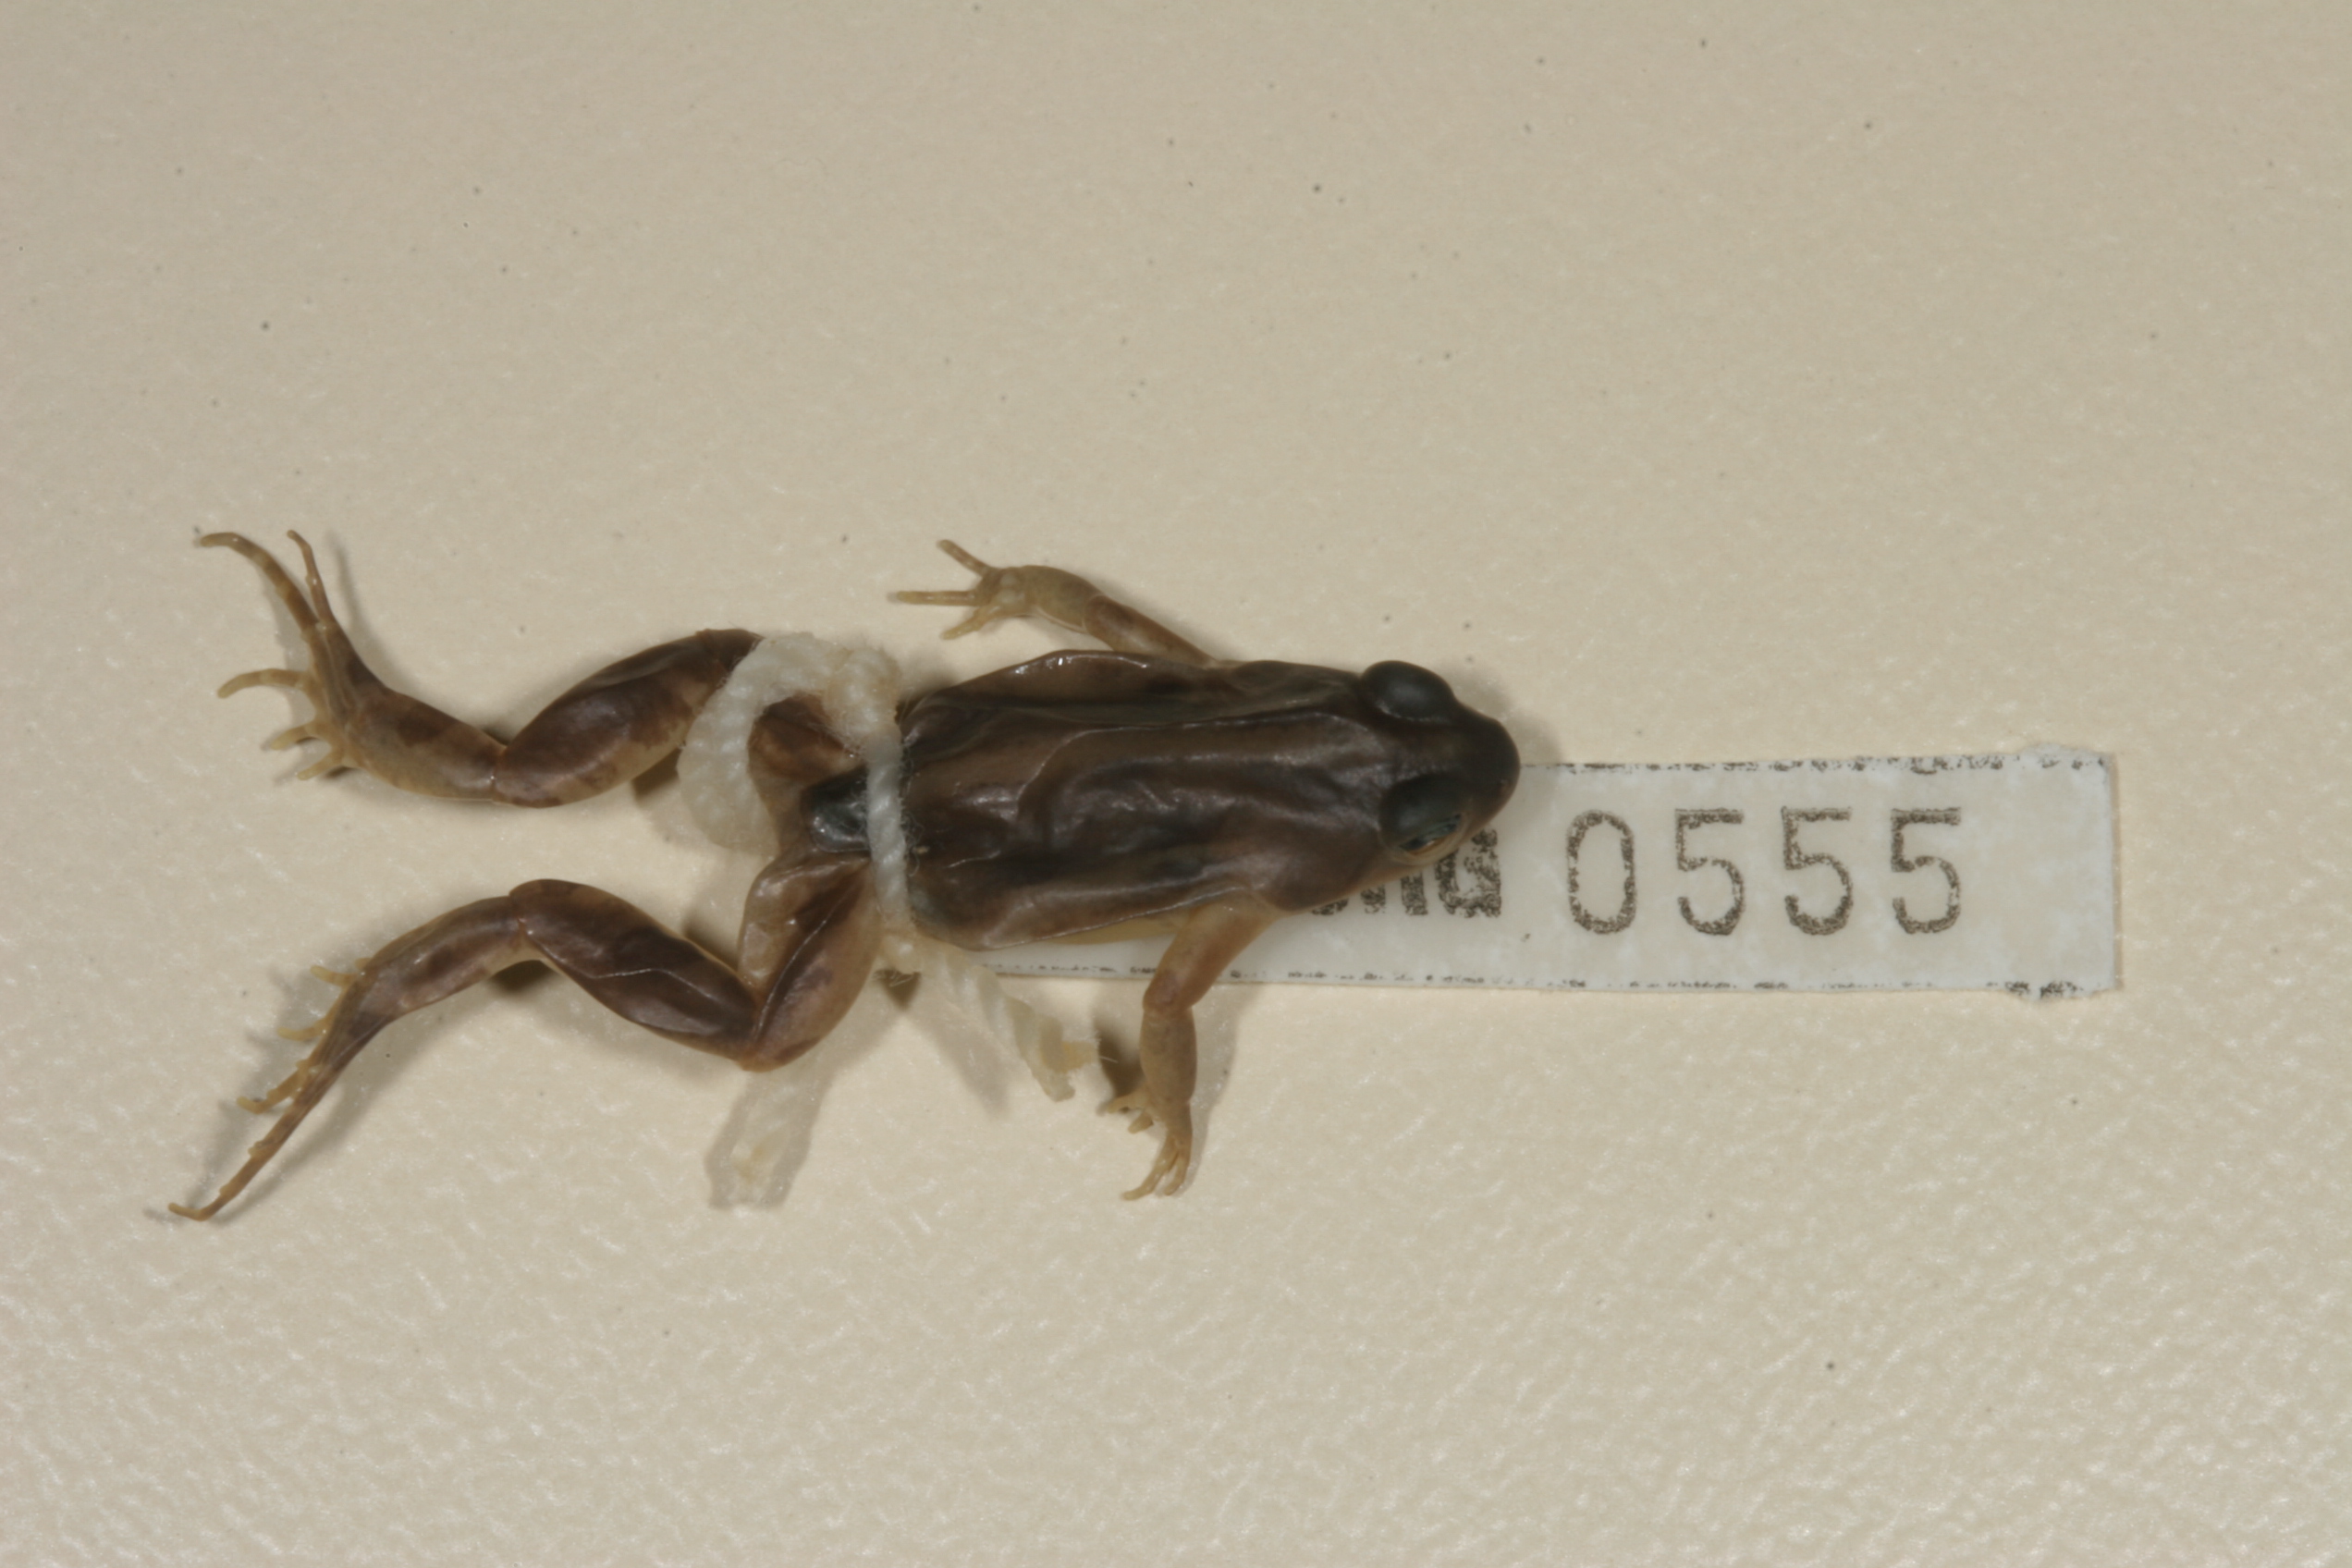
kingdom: Animalia
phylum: Chordata
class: Amphibia
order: Anura
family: Pyxicephalidae
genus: Cacosternum
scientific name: Cacosternum boettgeri
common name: Boettger's frog
